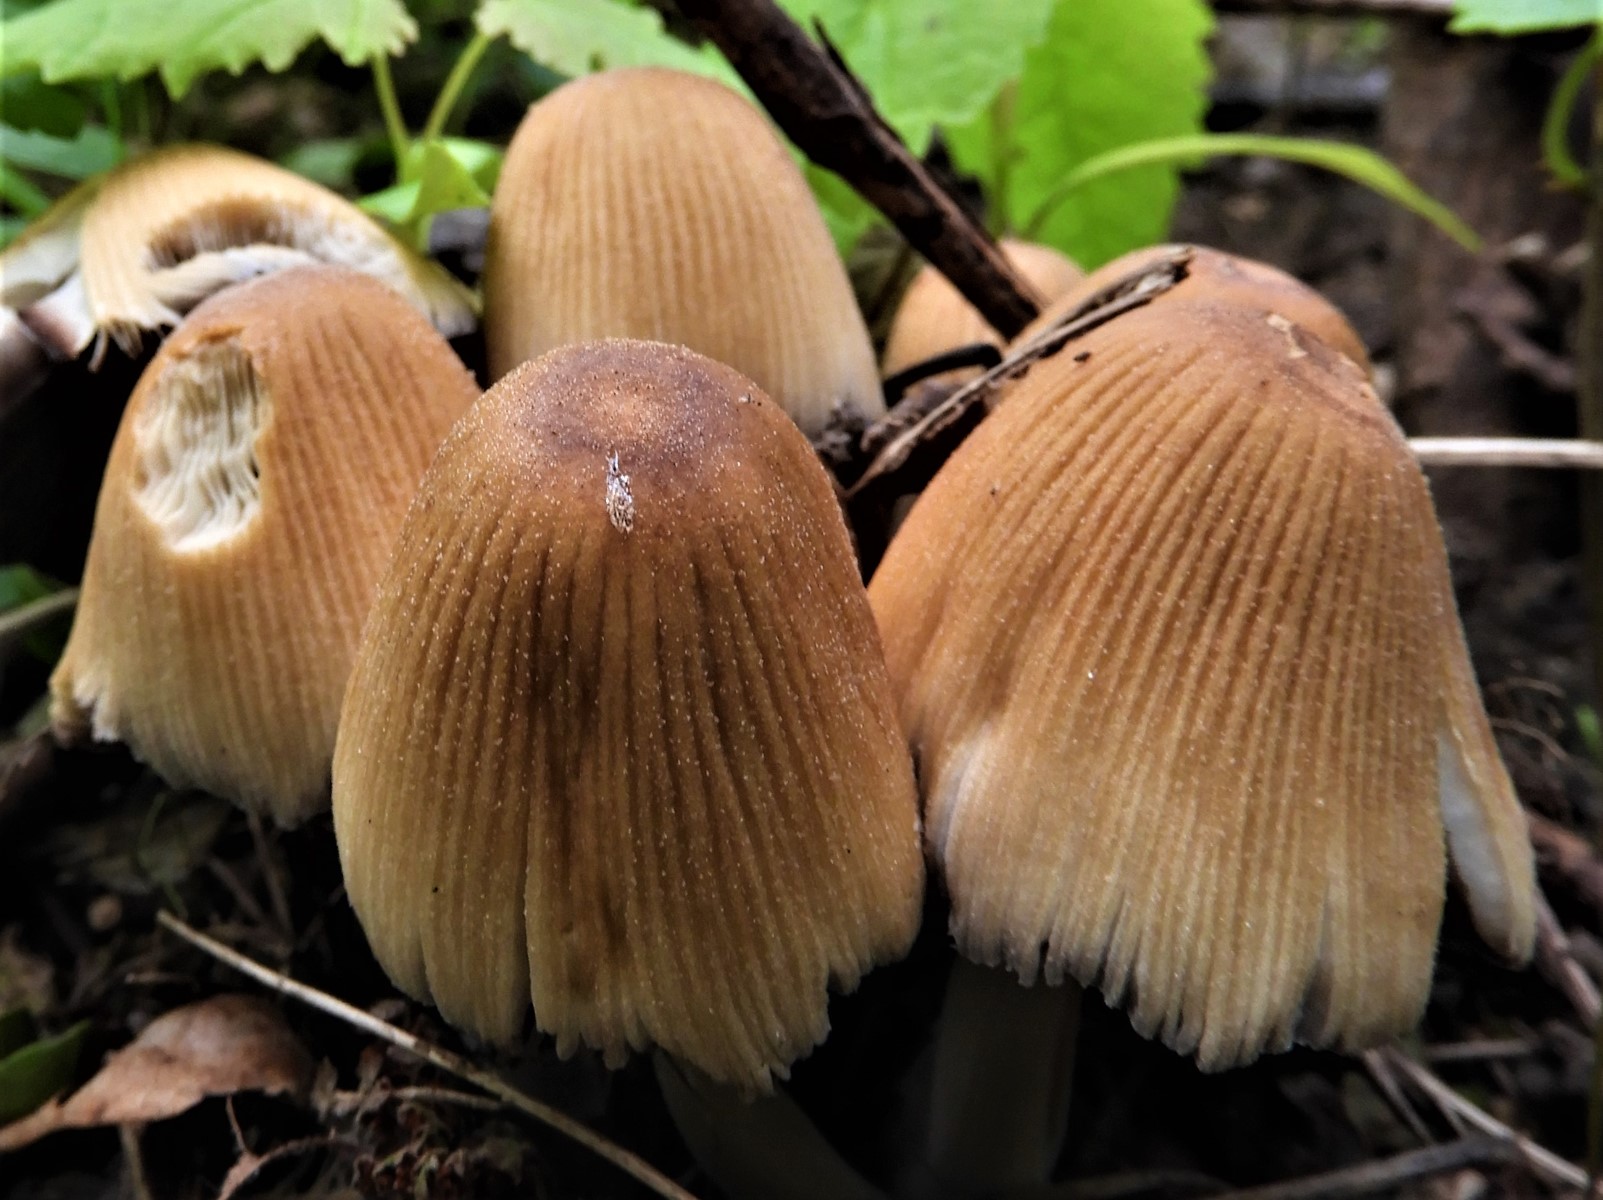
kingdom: Fungi
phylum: Basidiomycota
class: Agaricomycetes
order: Agaricales
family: Psathyrellaceae
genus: Coprinellus
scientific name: Coprinellus micaceus
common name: glimmer-blækhat
